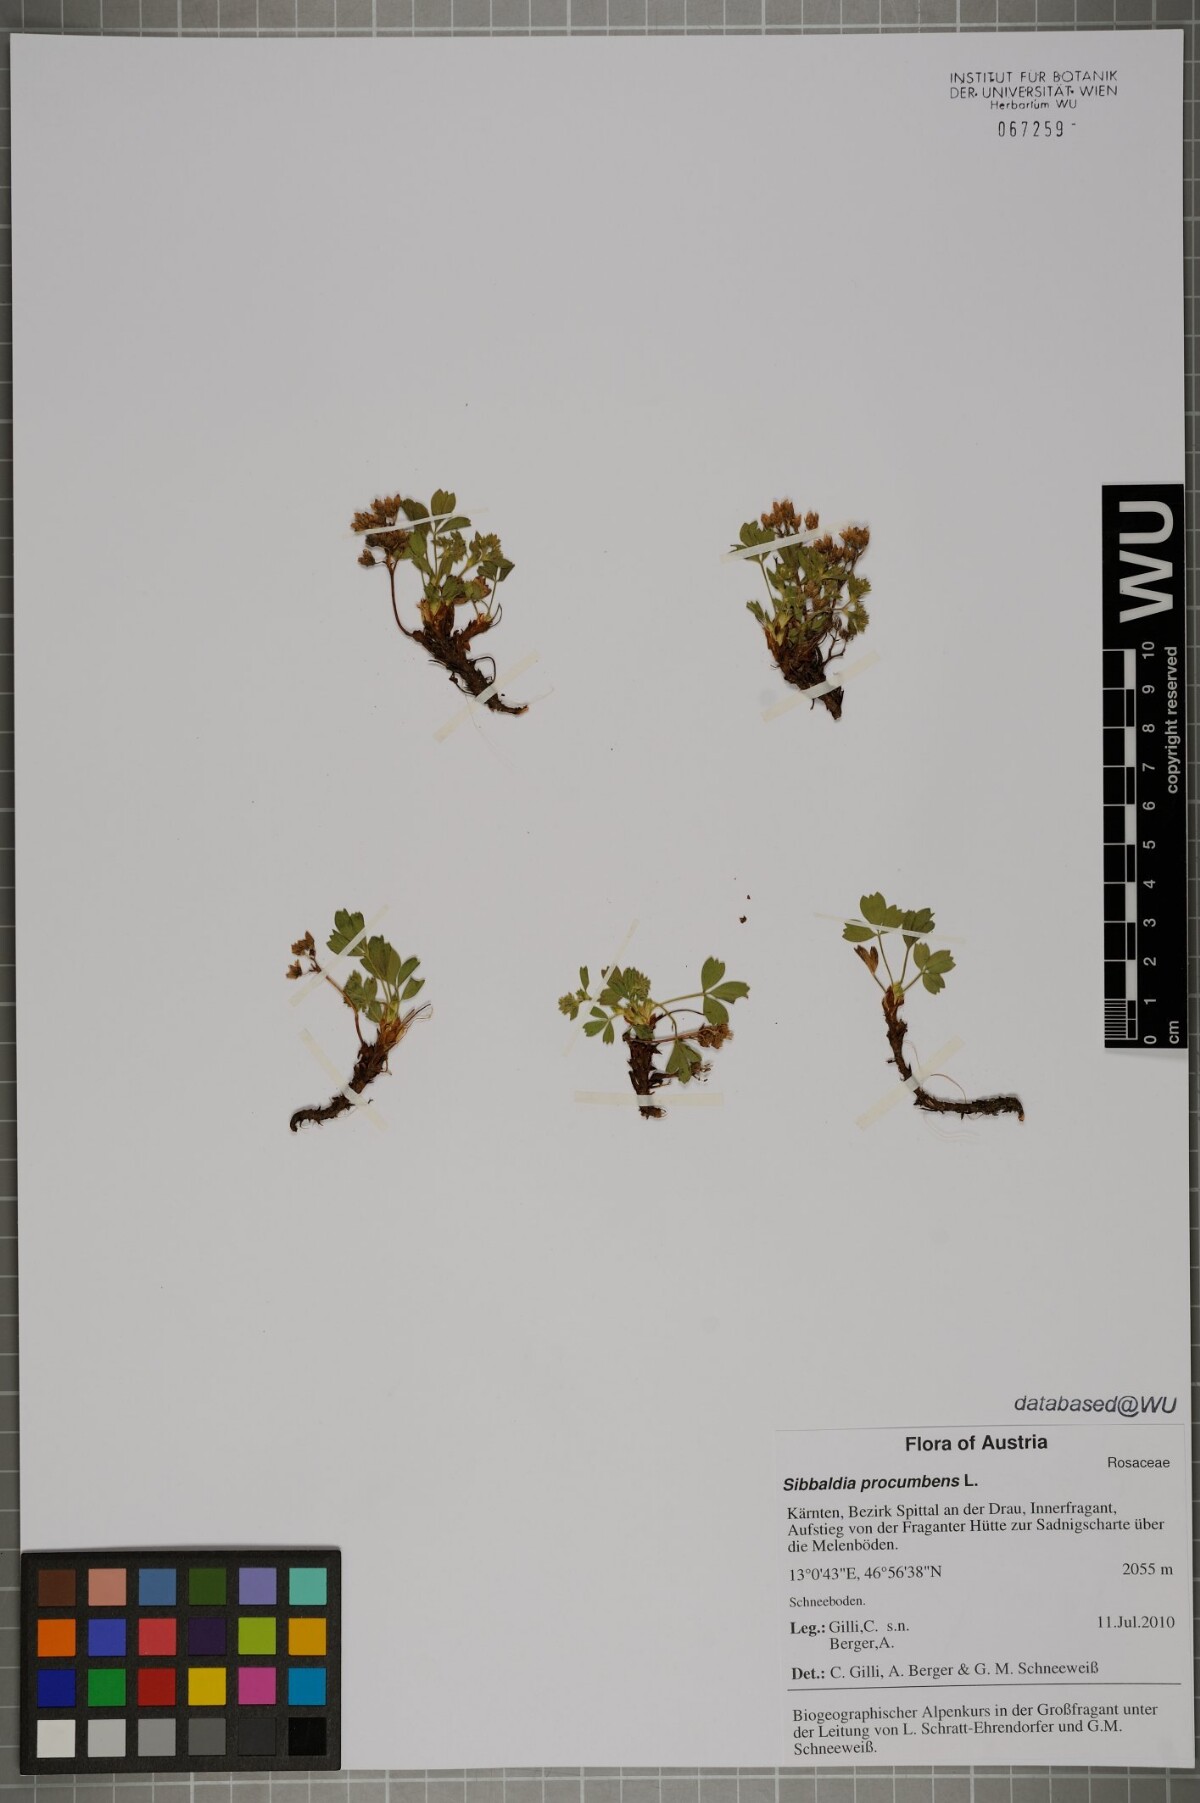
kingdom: Plantae
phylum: Tracheophyta
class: Magnoliopsida
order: Rosales
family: Rosaceae
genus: Sibbaldia
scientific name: Sibbaldia procumbens
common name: Creeping sibbaldia
